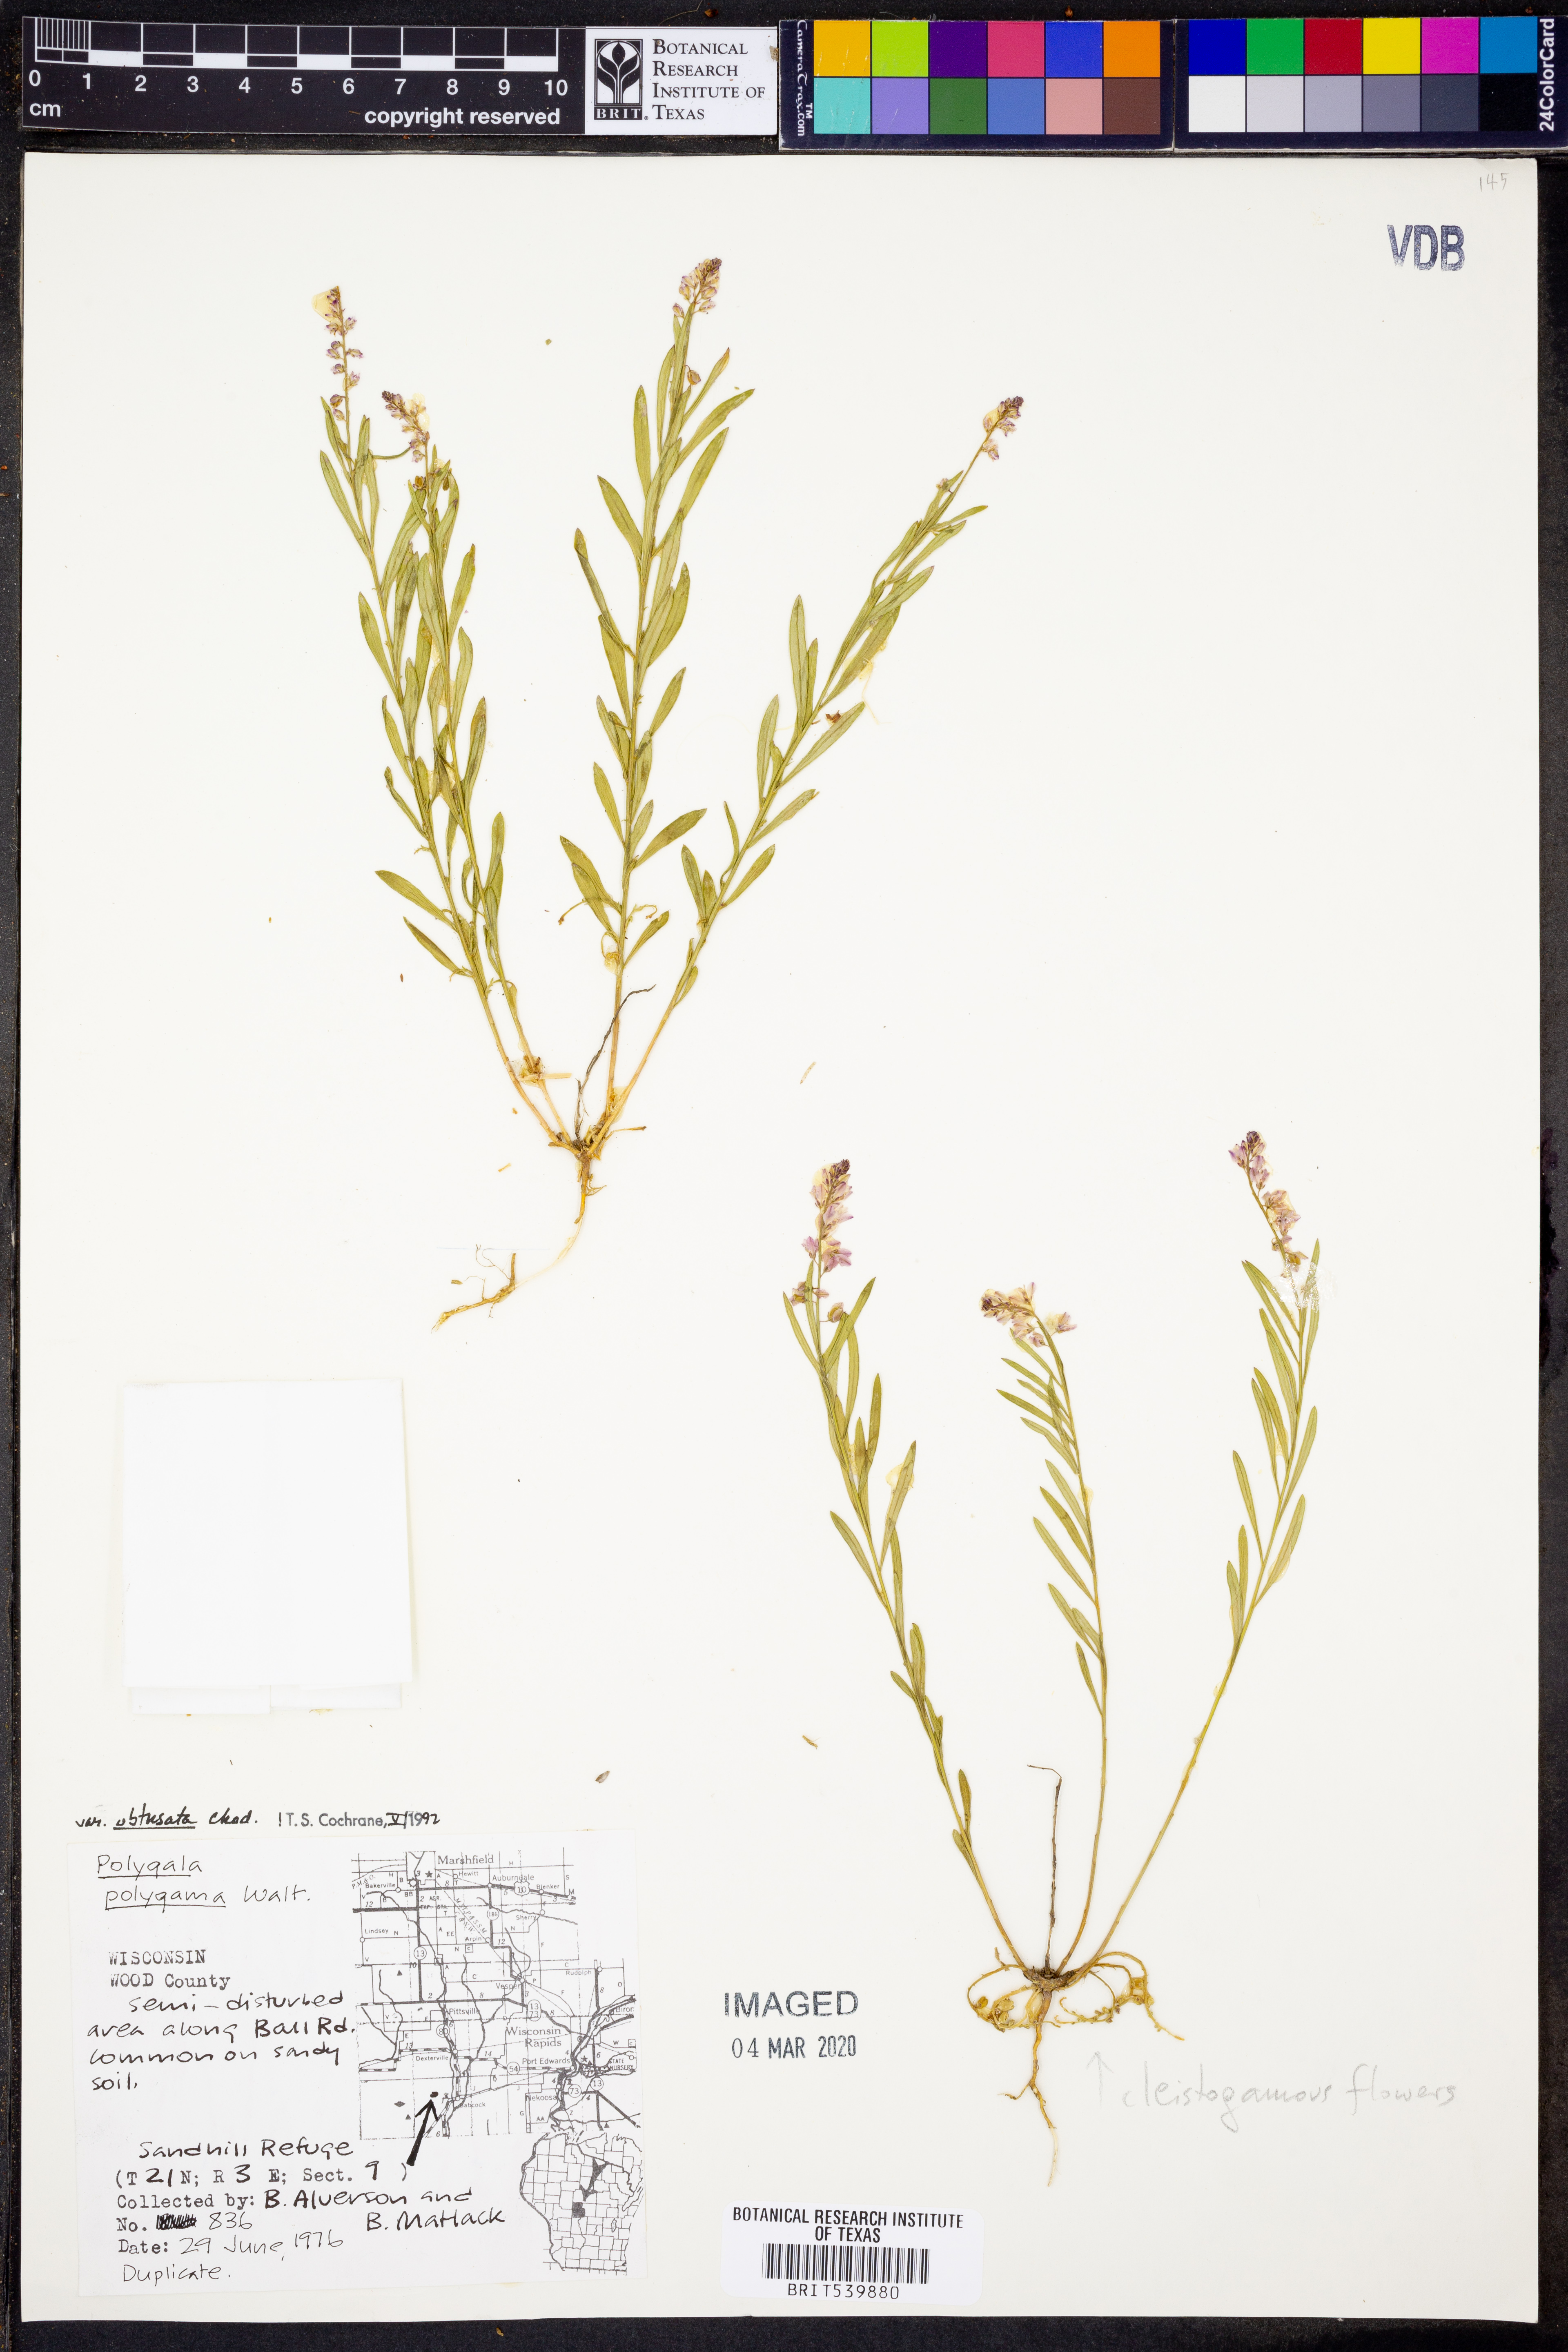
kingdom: Plantae
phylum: Tracheophyta
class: Magnoliopsida
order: Fabales
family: Polygalaceae
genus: Polygala
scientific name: Polygala polygama
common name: Bitter milkwort
